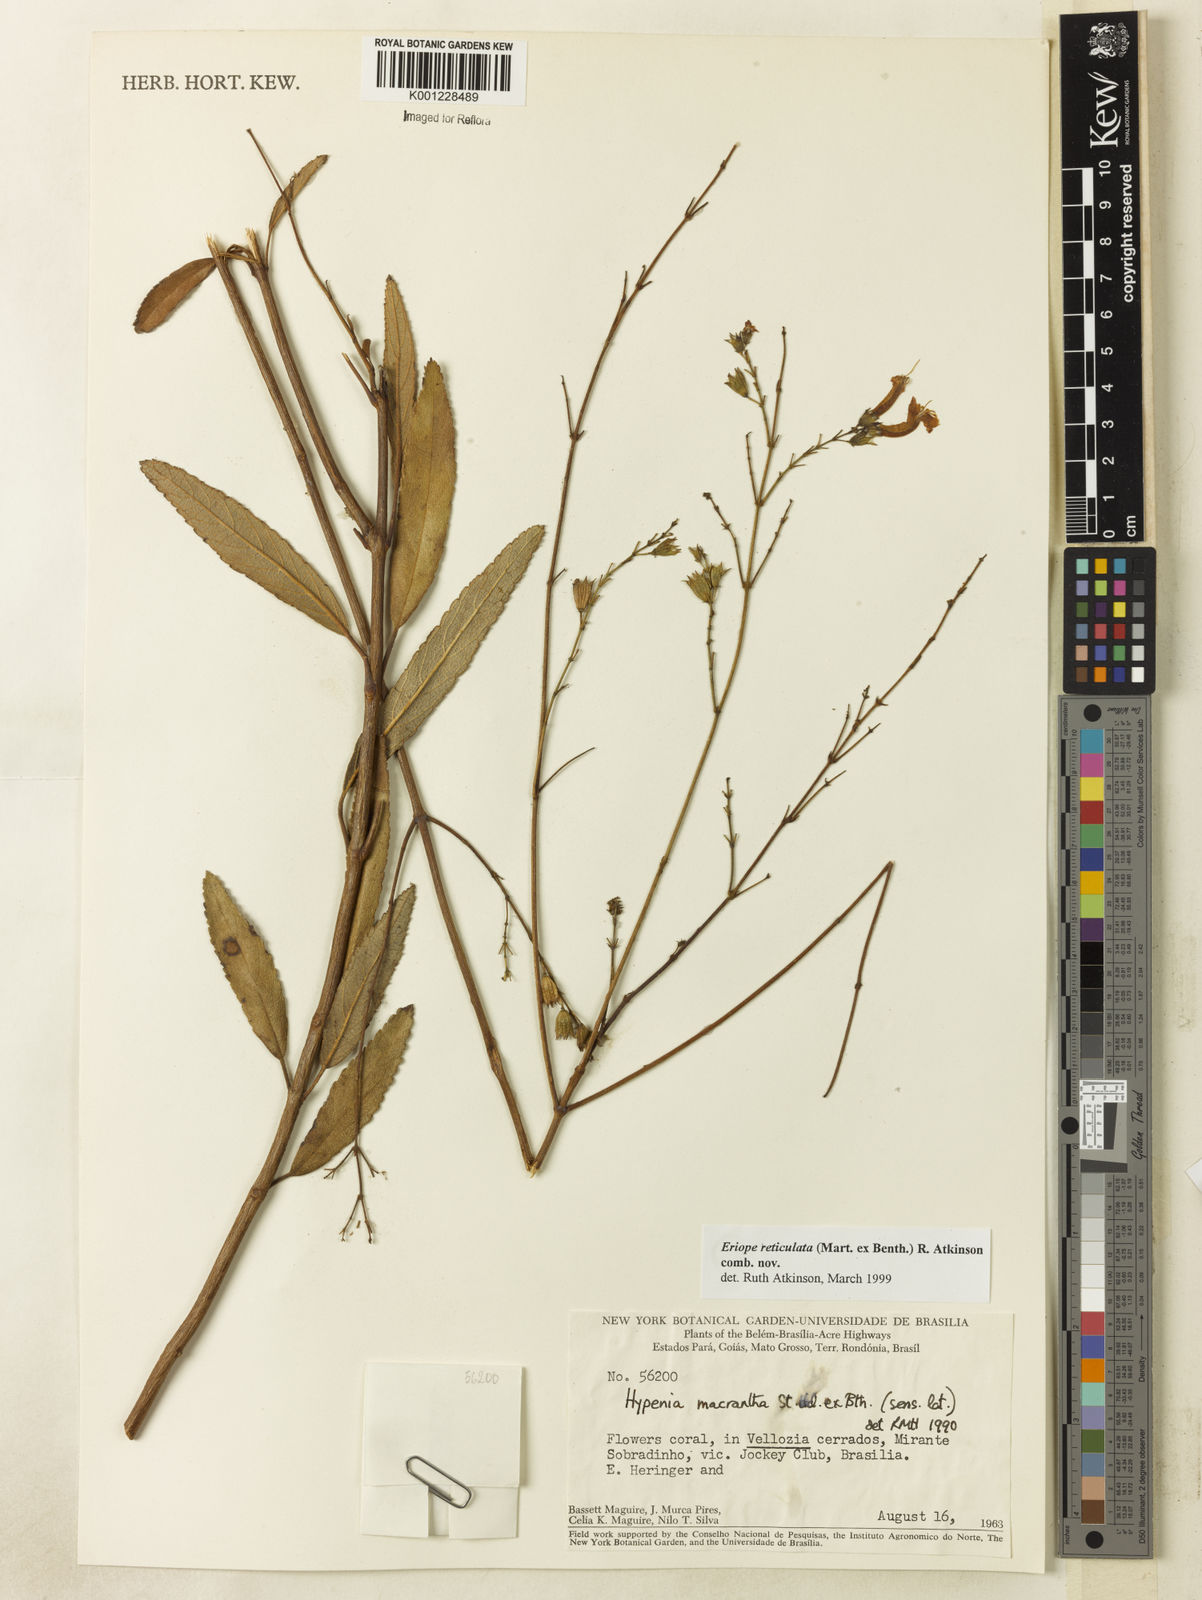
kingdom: Plantae
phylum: Tracheophyta
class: Magnoliopsida
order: Lamiales
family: Lamiaceae
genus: Hypenia
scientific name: Hypenia reticulata
